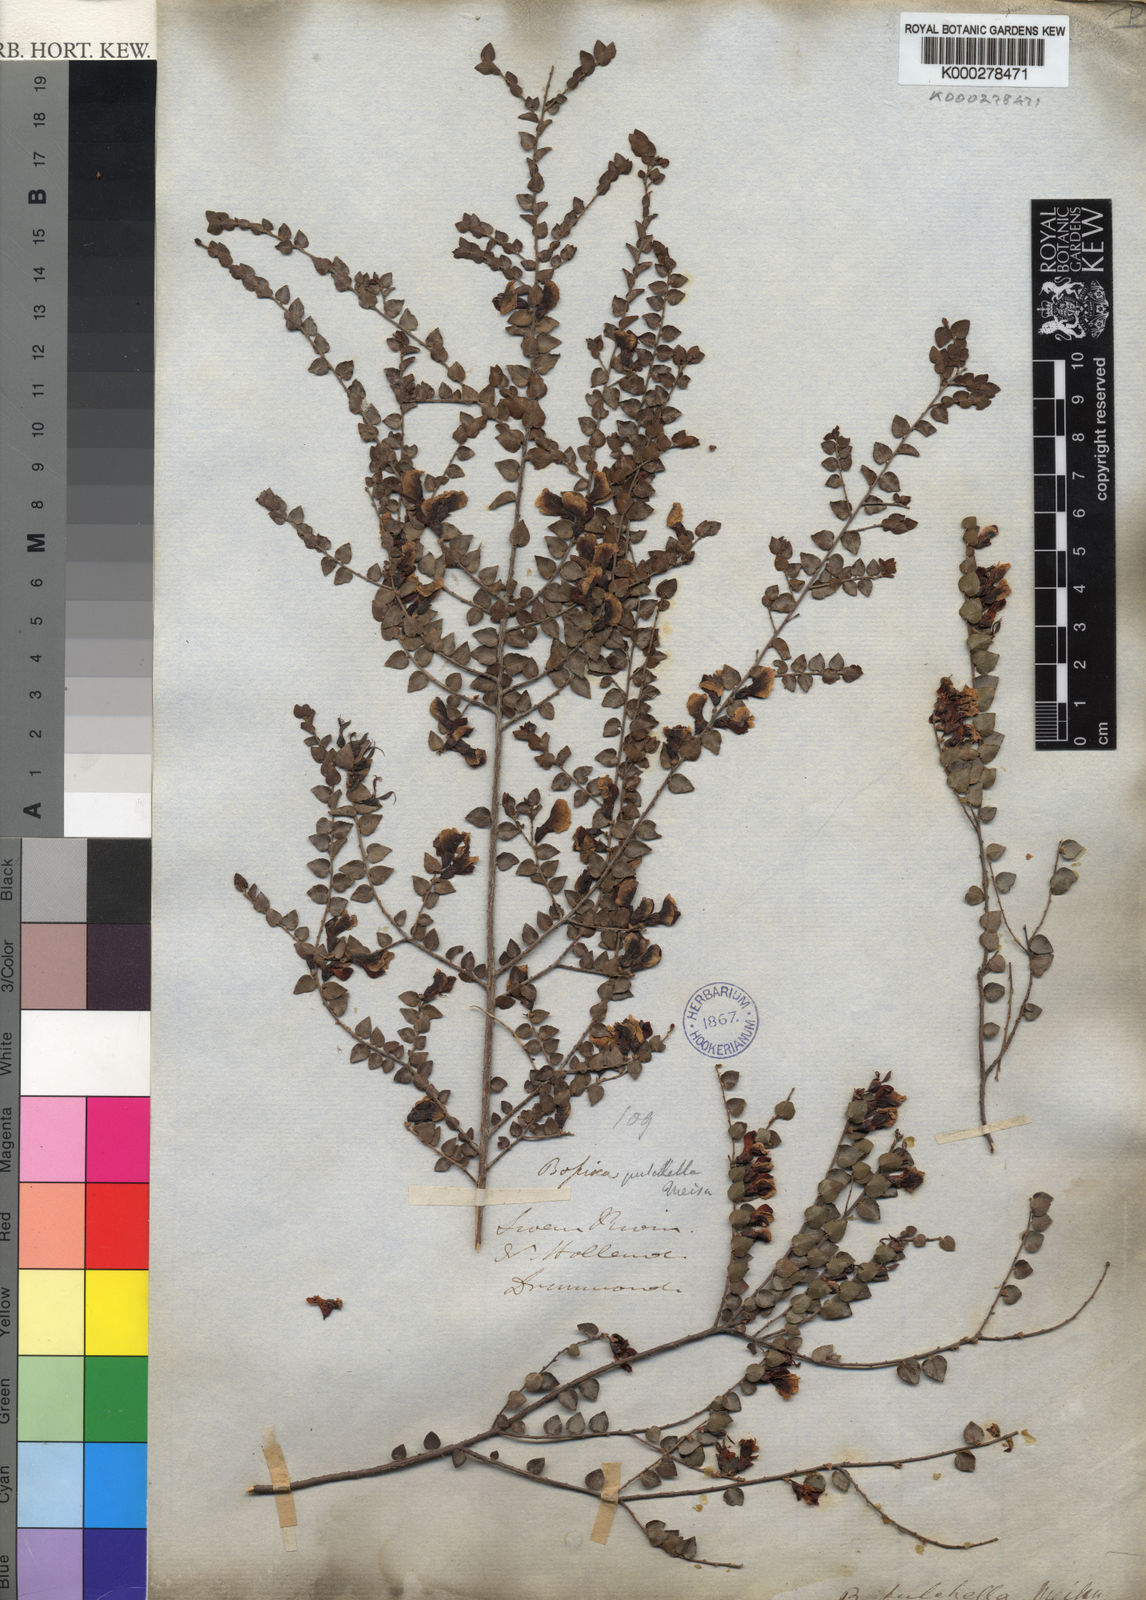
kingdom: Plantae
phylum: Tracheophyta
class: Magnoliopsida
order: Fabales
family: Fabaceae
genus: Bossiaea
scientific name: Bossiaea pulchella
